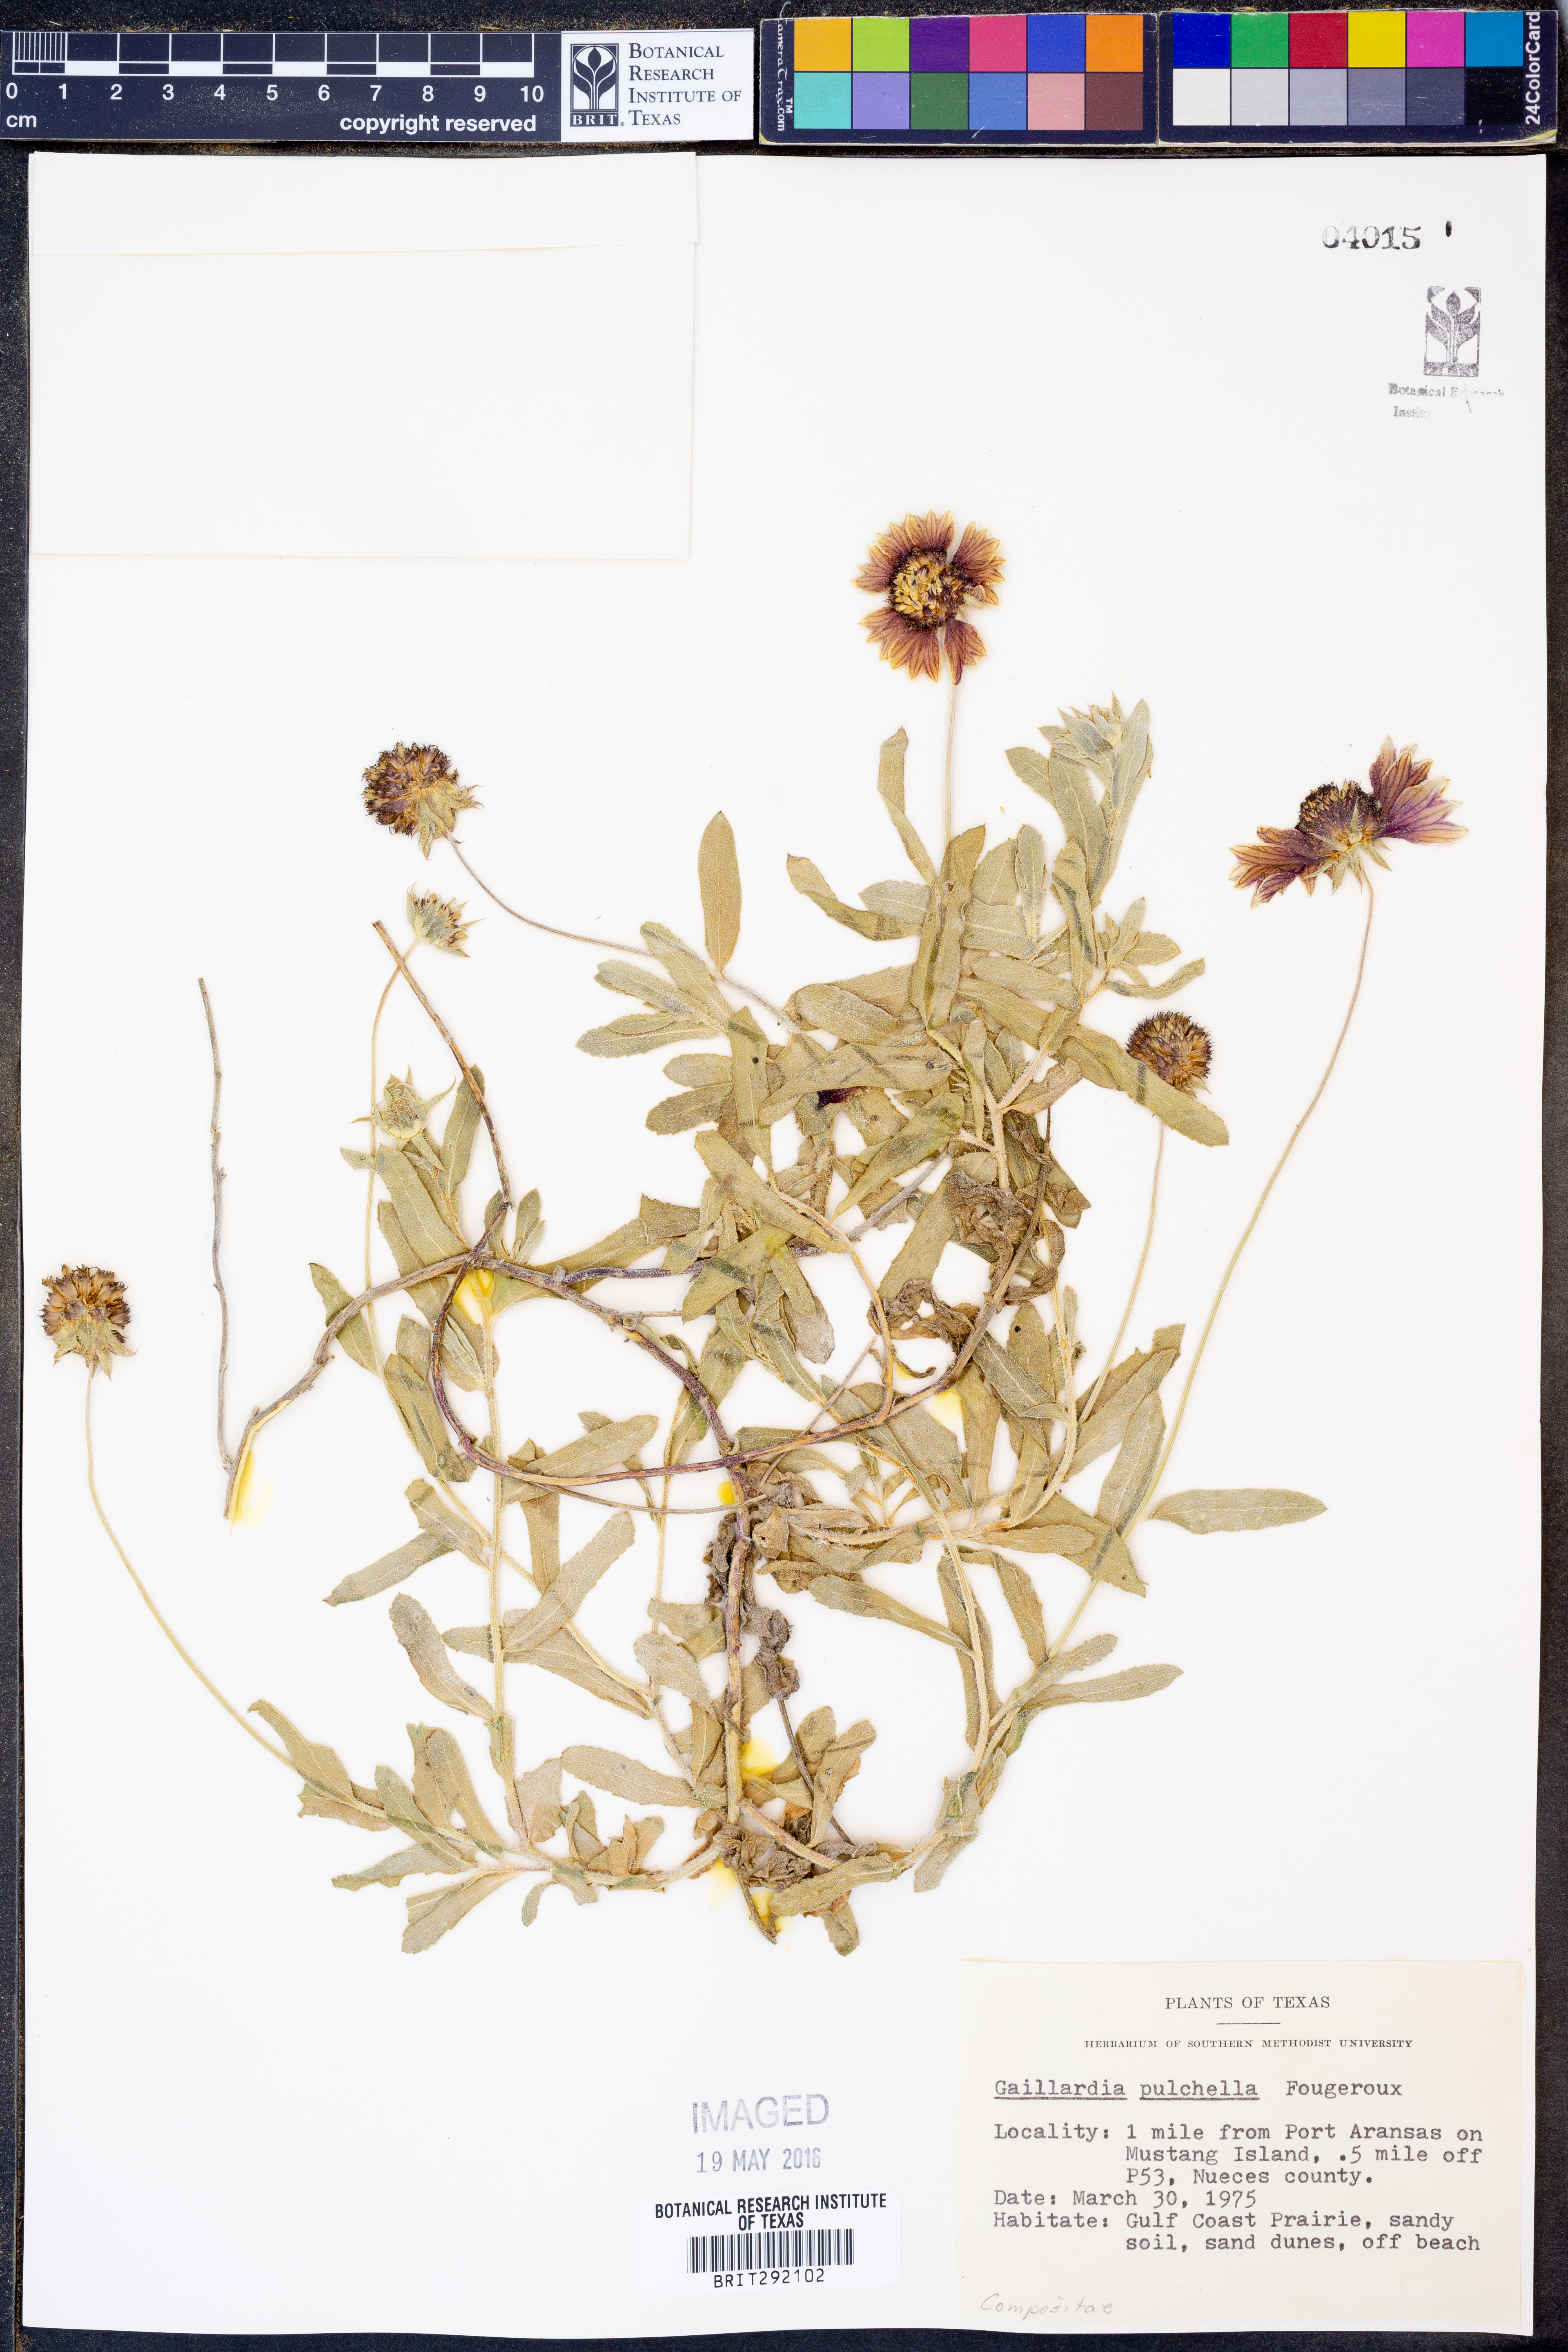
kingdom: Plantae
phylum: Tracheophyta
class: Magnoliopsida
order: Asterales
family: Asteraceae
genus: Gaillardia
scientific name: Gaillardia pulchella
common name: Firewheel
